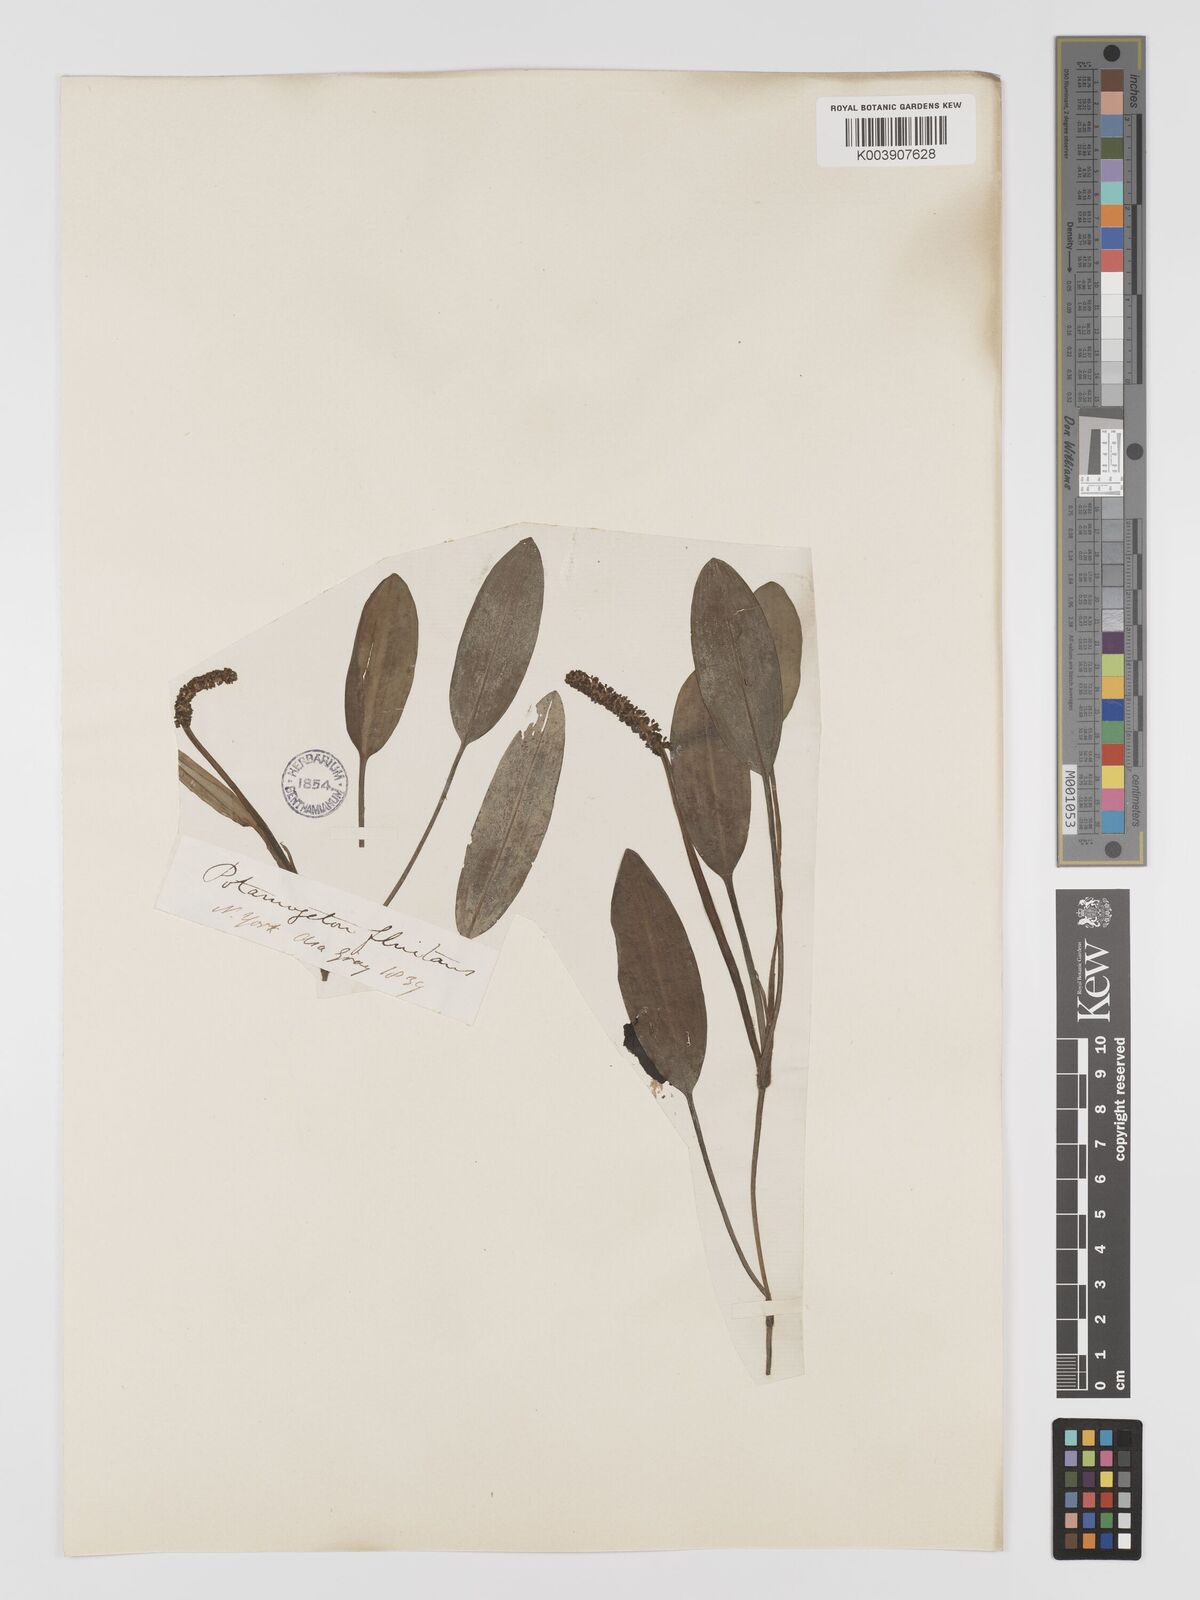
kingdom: Plantae
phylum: Tracheophyta
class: Liliopsida
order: Alismatales
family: Potamogetonaceae
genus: Potamogeton
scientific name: Potamogeton nodosus
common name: Loddon pondweed
